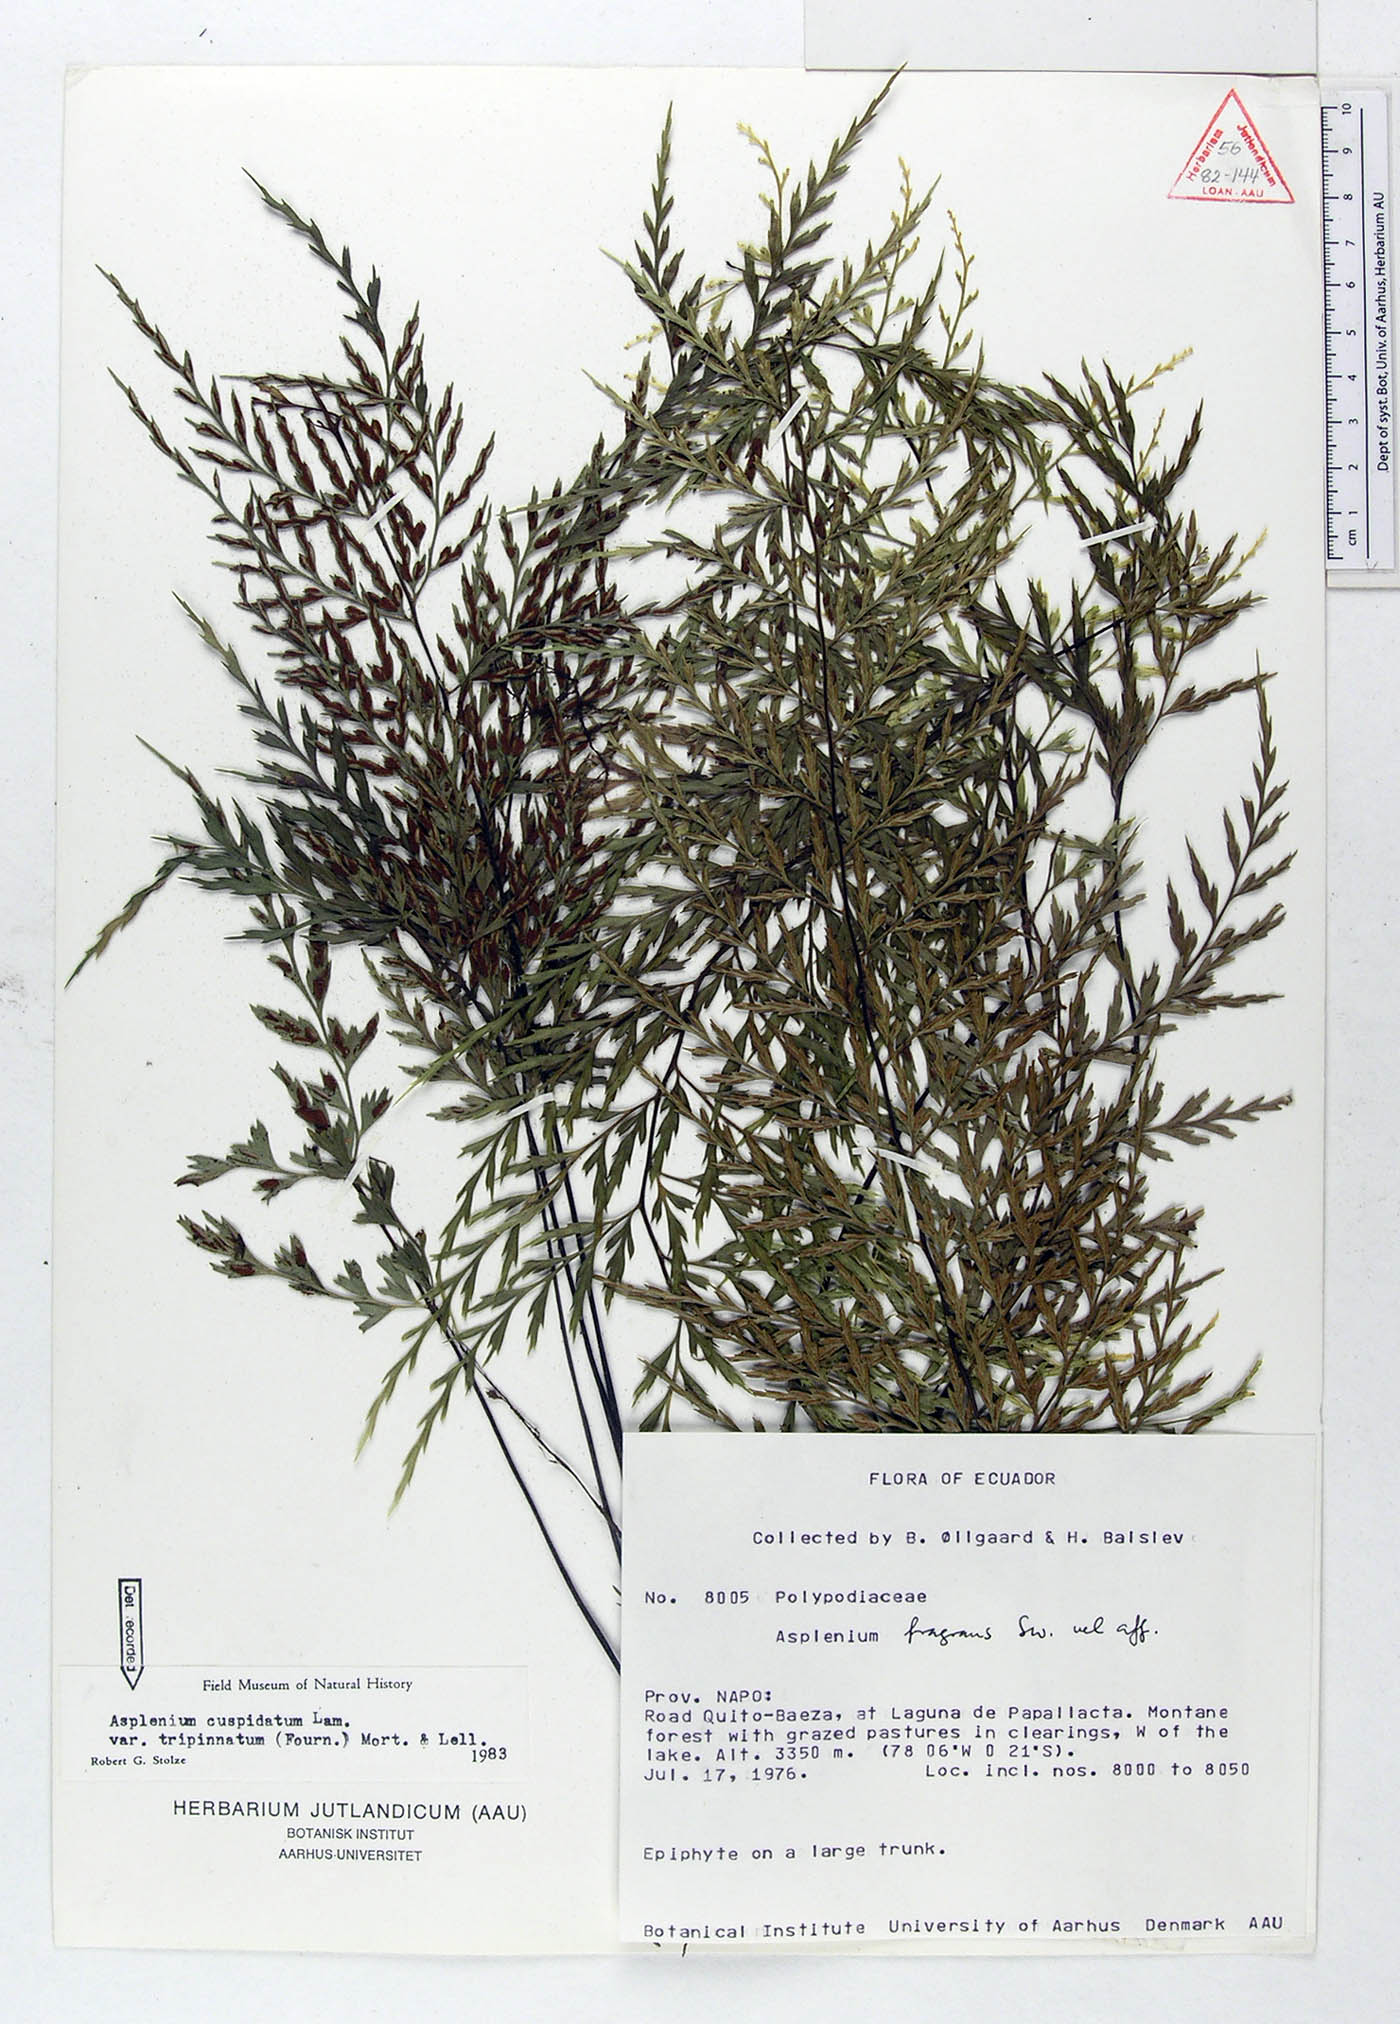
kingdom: Plantae
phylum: Tracheophyta
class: Polypodiopsida
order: Polypodiales
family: Aspleniaceae
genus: Asplenium
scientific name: Asplenium fragrans
